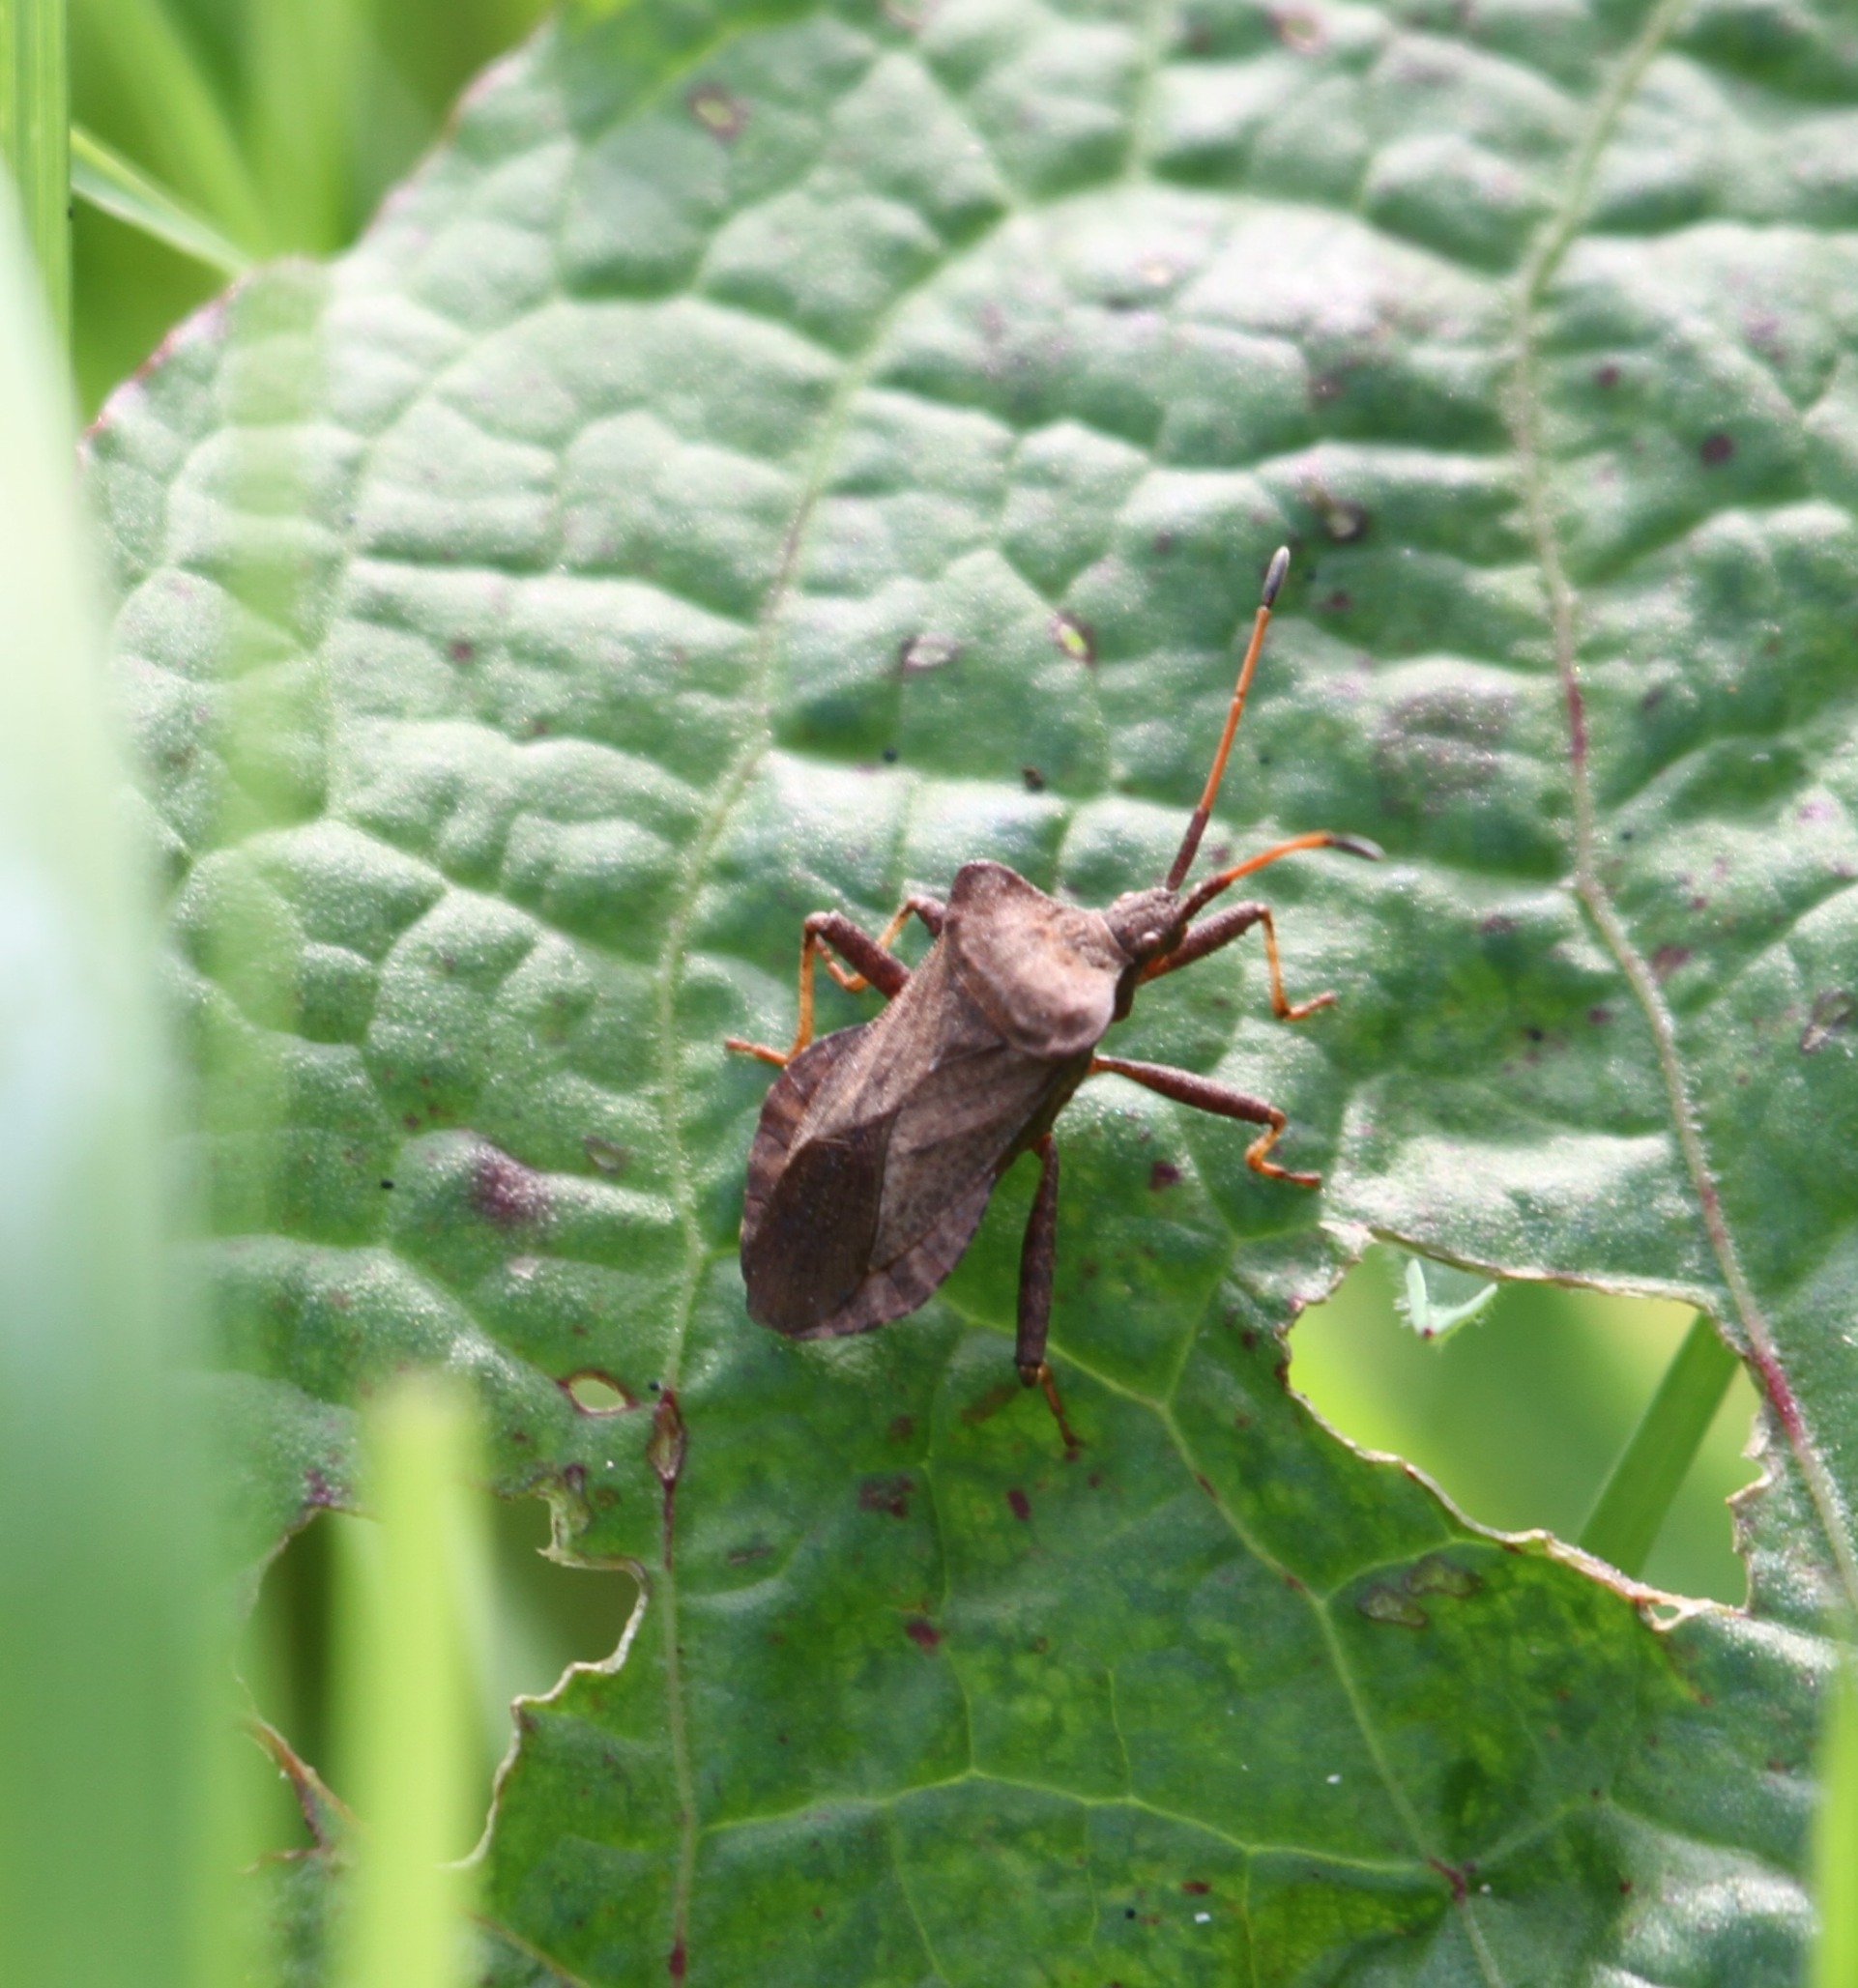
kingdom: Animalia
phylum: Arthropoda
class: Insecta
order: Hemiptera
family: Coreidae
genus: Coreus
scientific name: Coreus marginatus
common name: Skræppetæge
